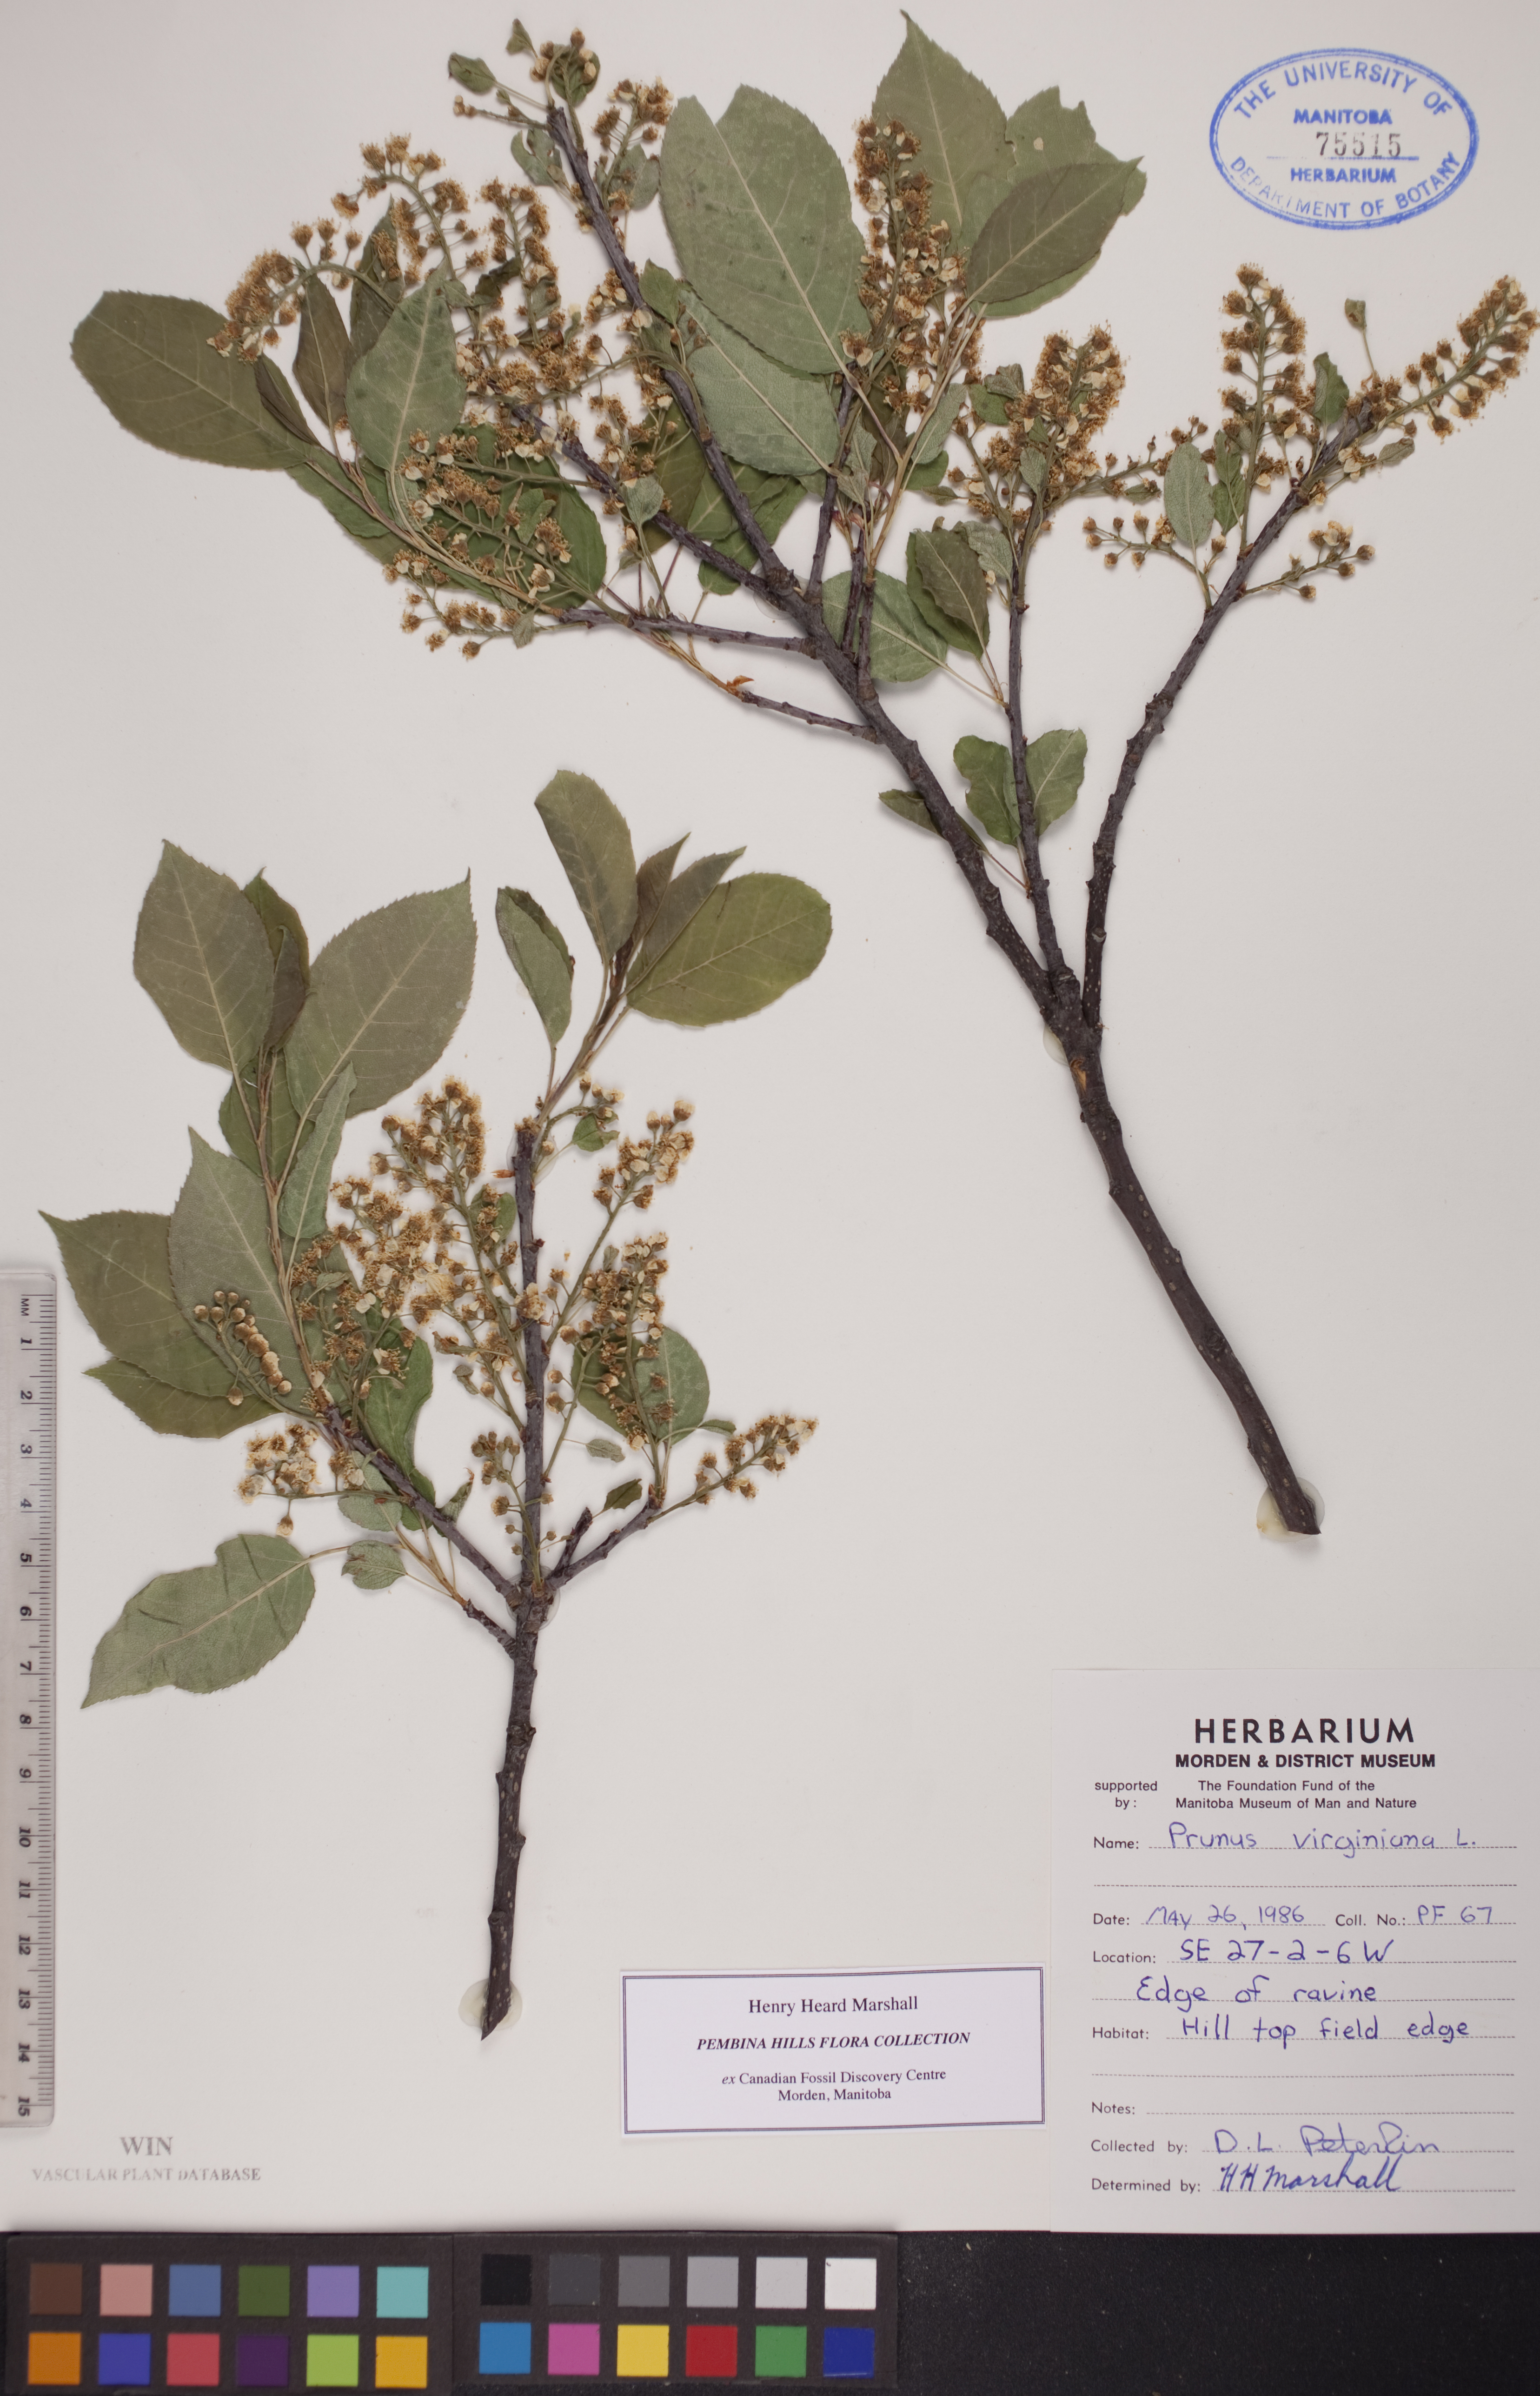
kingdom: Plantae
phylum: Tracheophyta
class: Magnoliopsida
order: Rosales
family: Rosaceae
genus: Prunus
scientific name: Prunus virginiana
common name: Chokecherry
